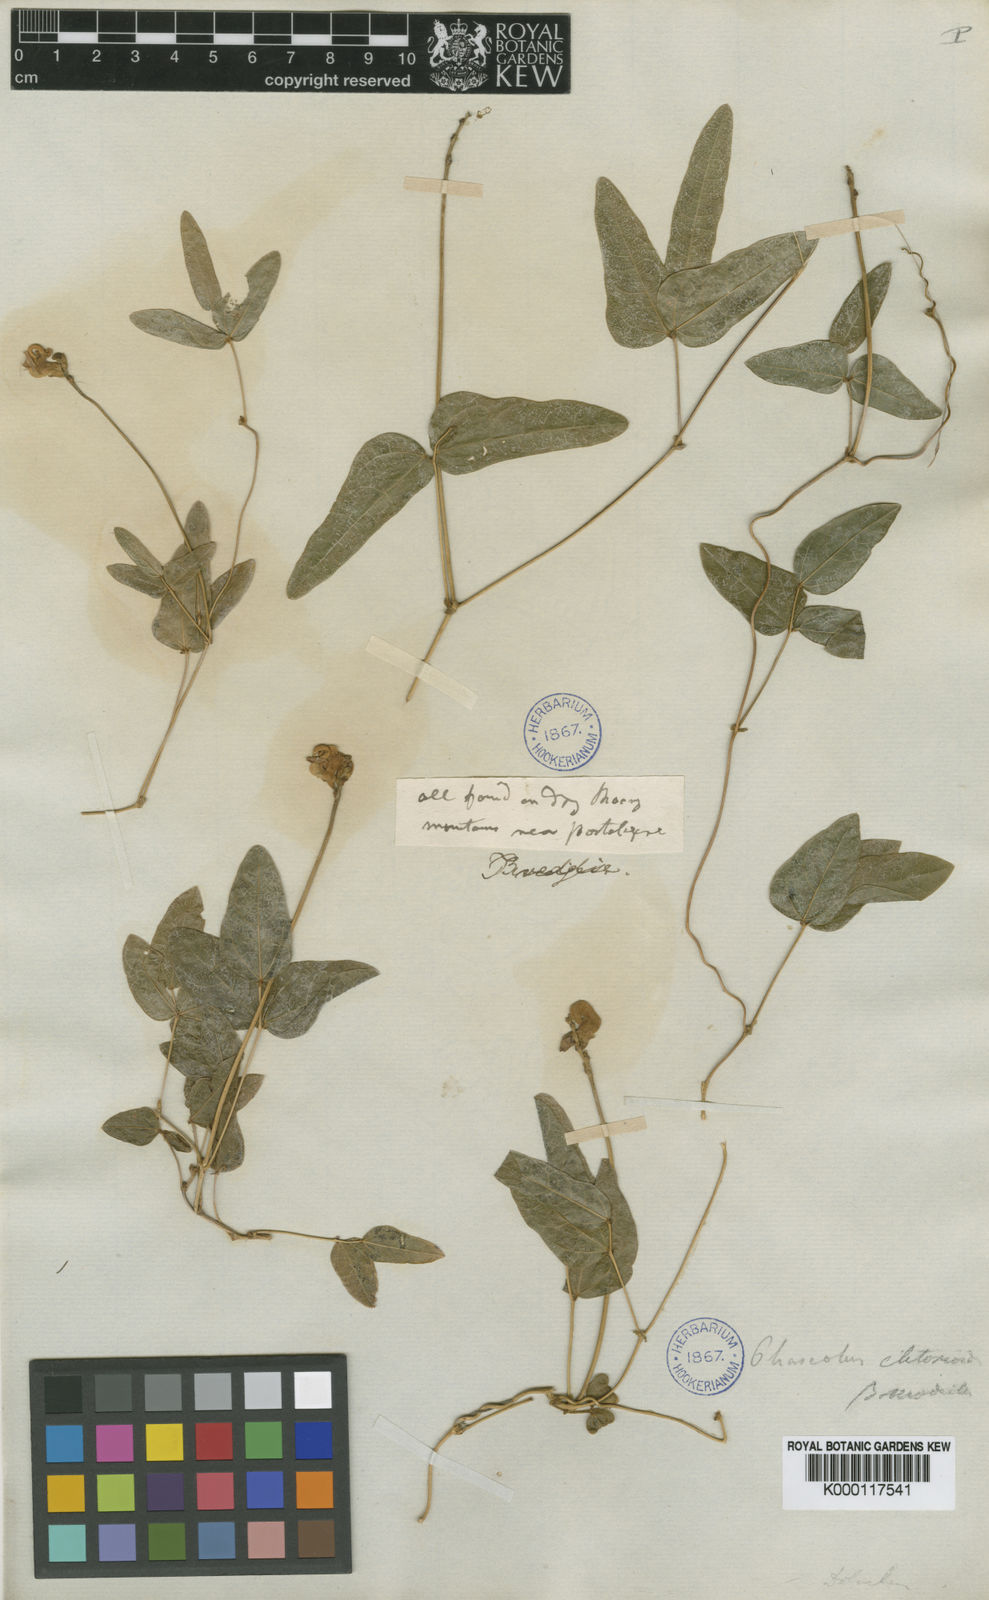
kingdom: Plantae
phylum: Tracheophyta
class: Magnoliopsida
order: Fabales
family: Fabaceae
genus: Phaseolus
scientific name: Phaseolus
